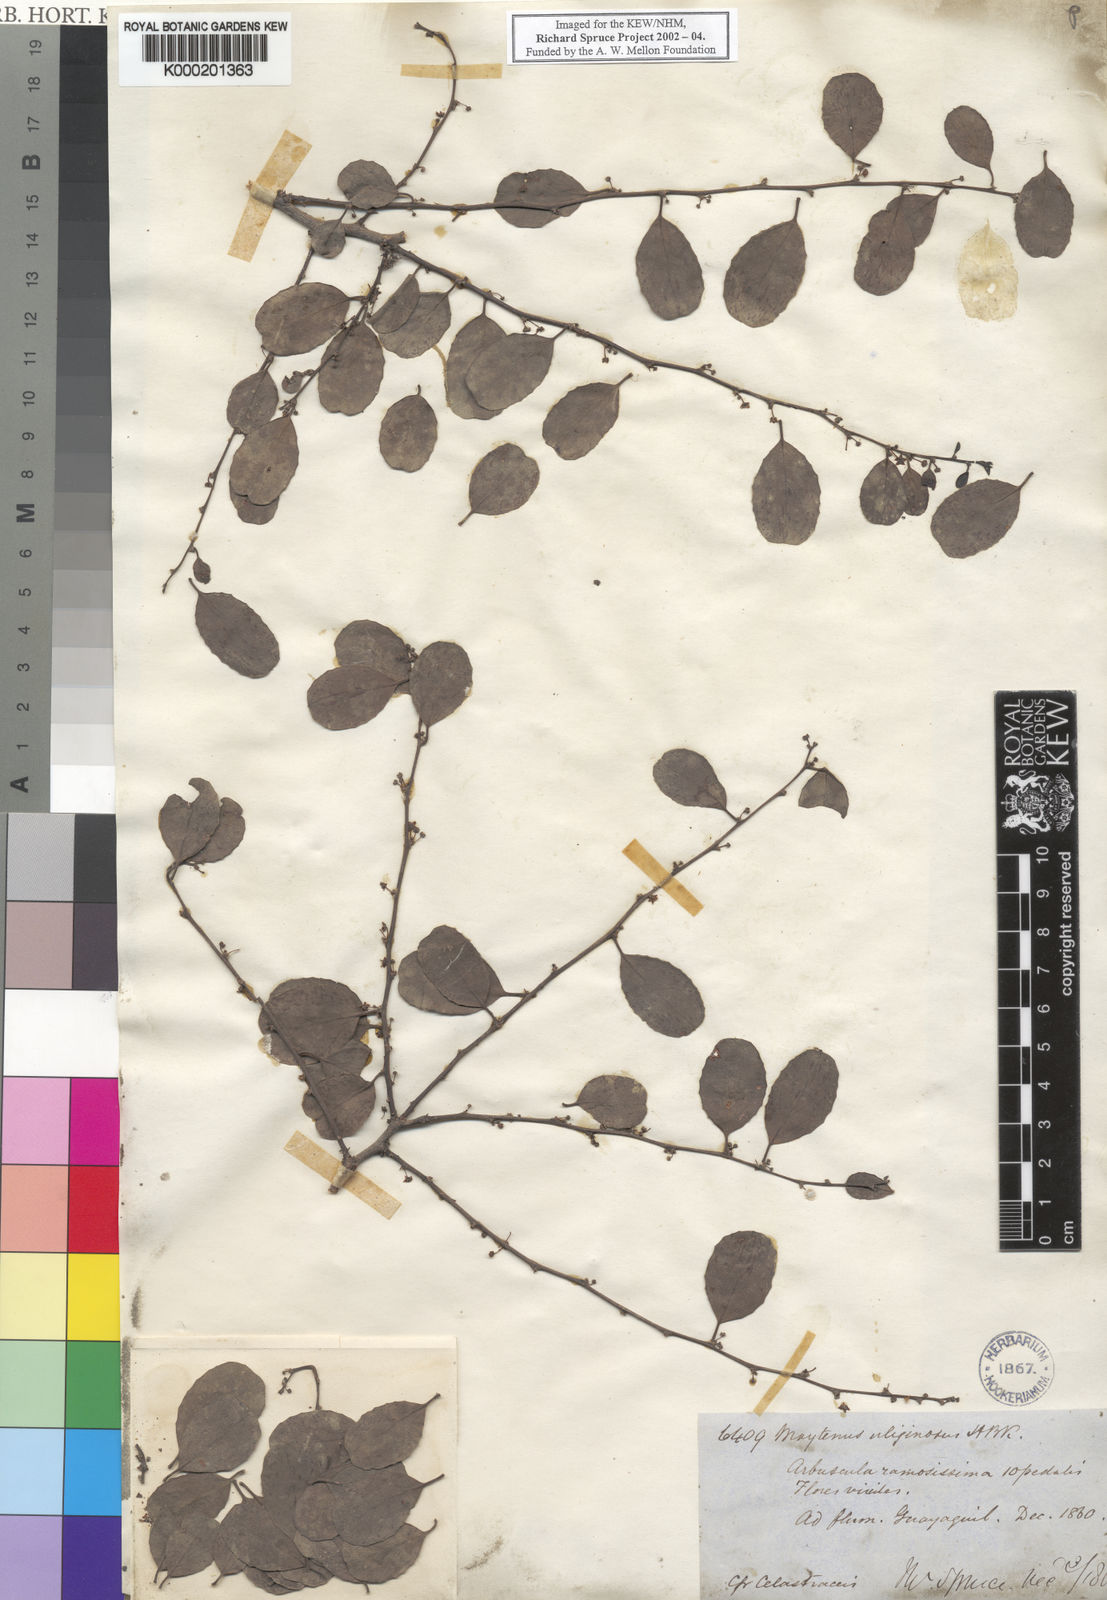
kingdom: Plantae
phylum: Tracheophyta
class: Magnoliopsida
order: Celastrales
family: Celastraceae
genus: Tricerma
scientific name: Tricerma octogonum
